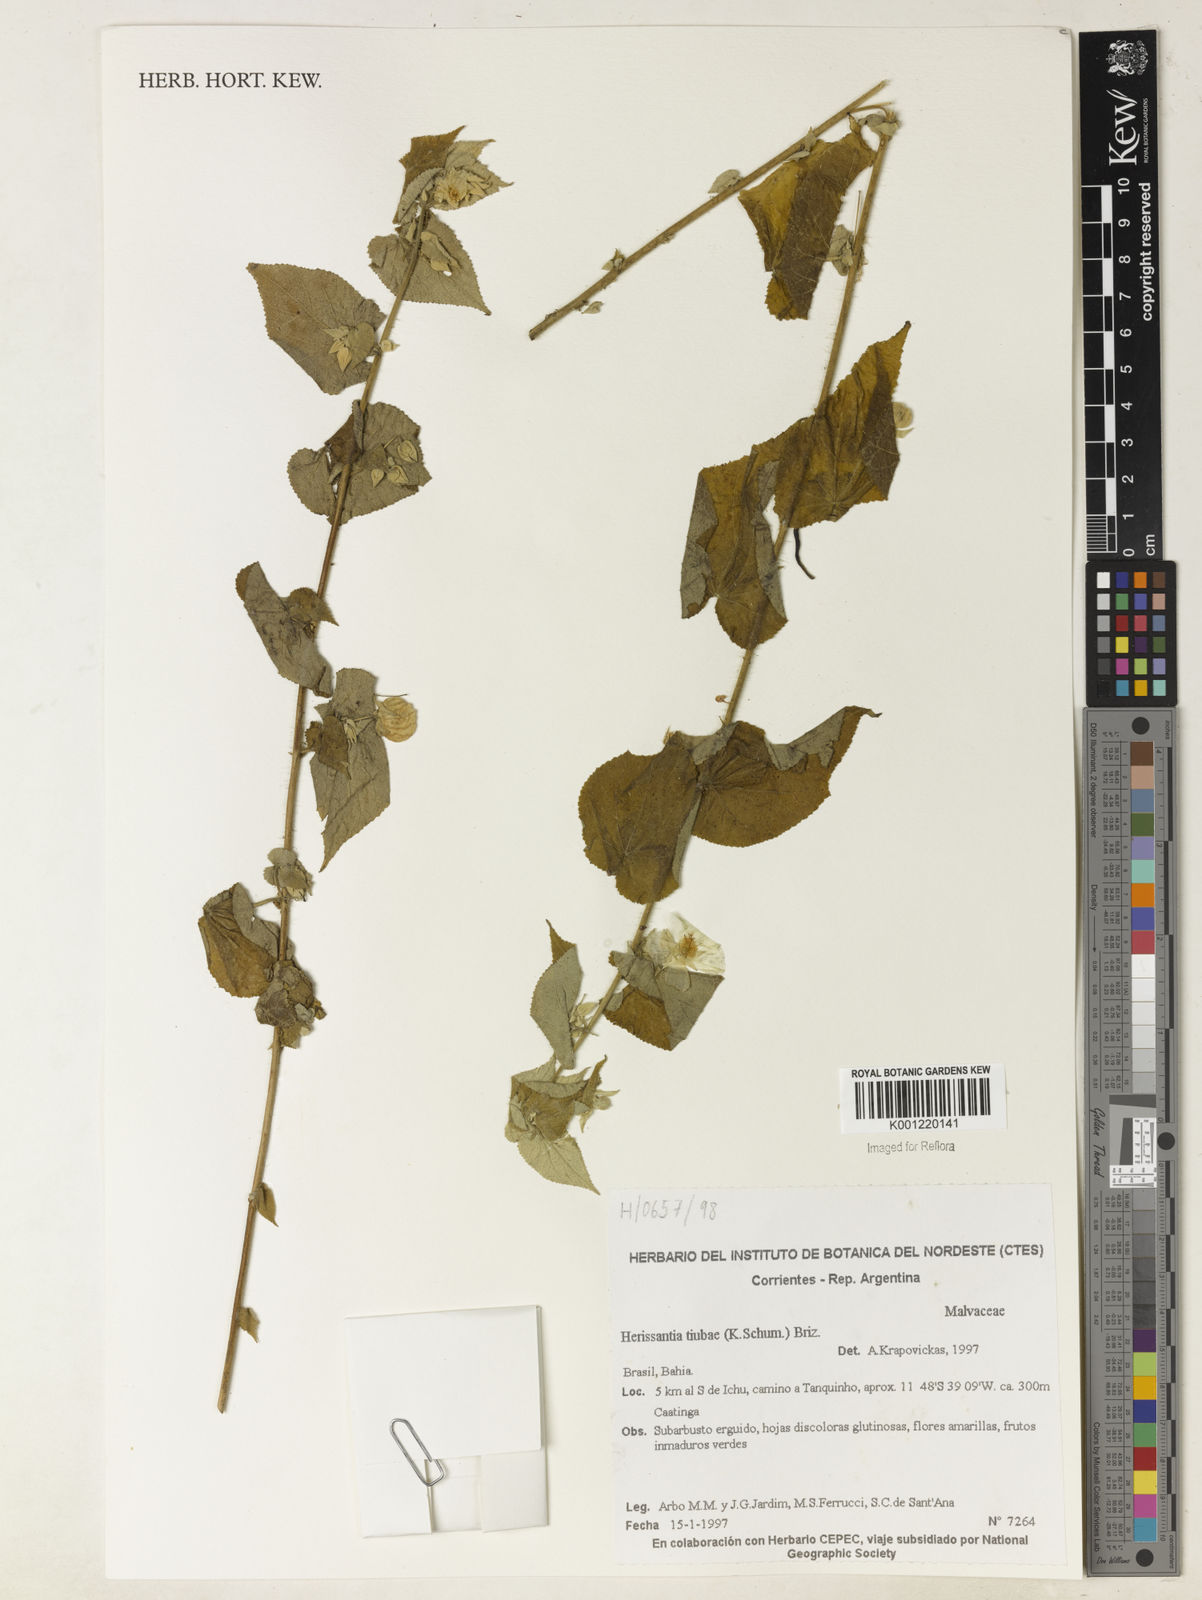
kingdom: Plantae
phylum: Tracheophyta
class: Magnoliopsida
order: Malvales
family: Malvaceae
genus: Herissantia
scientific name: Herissantia tiubae
